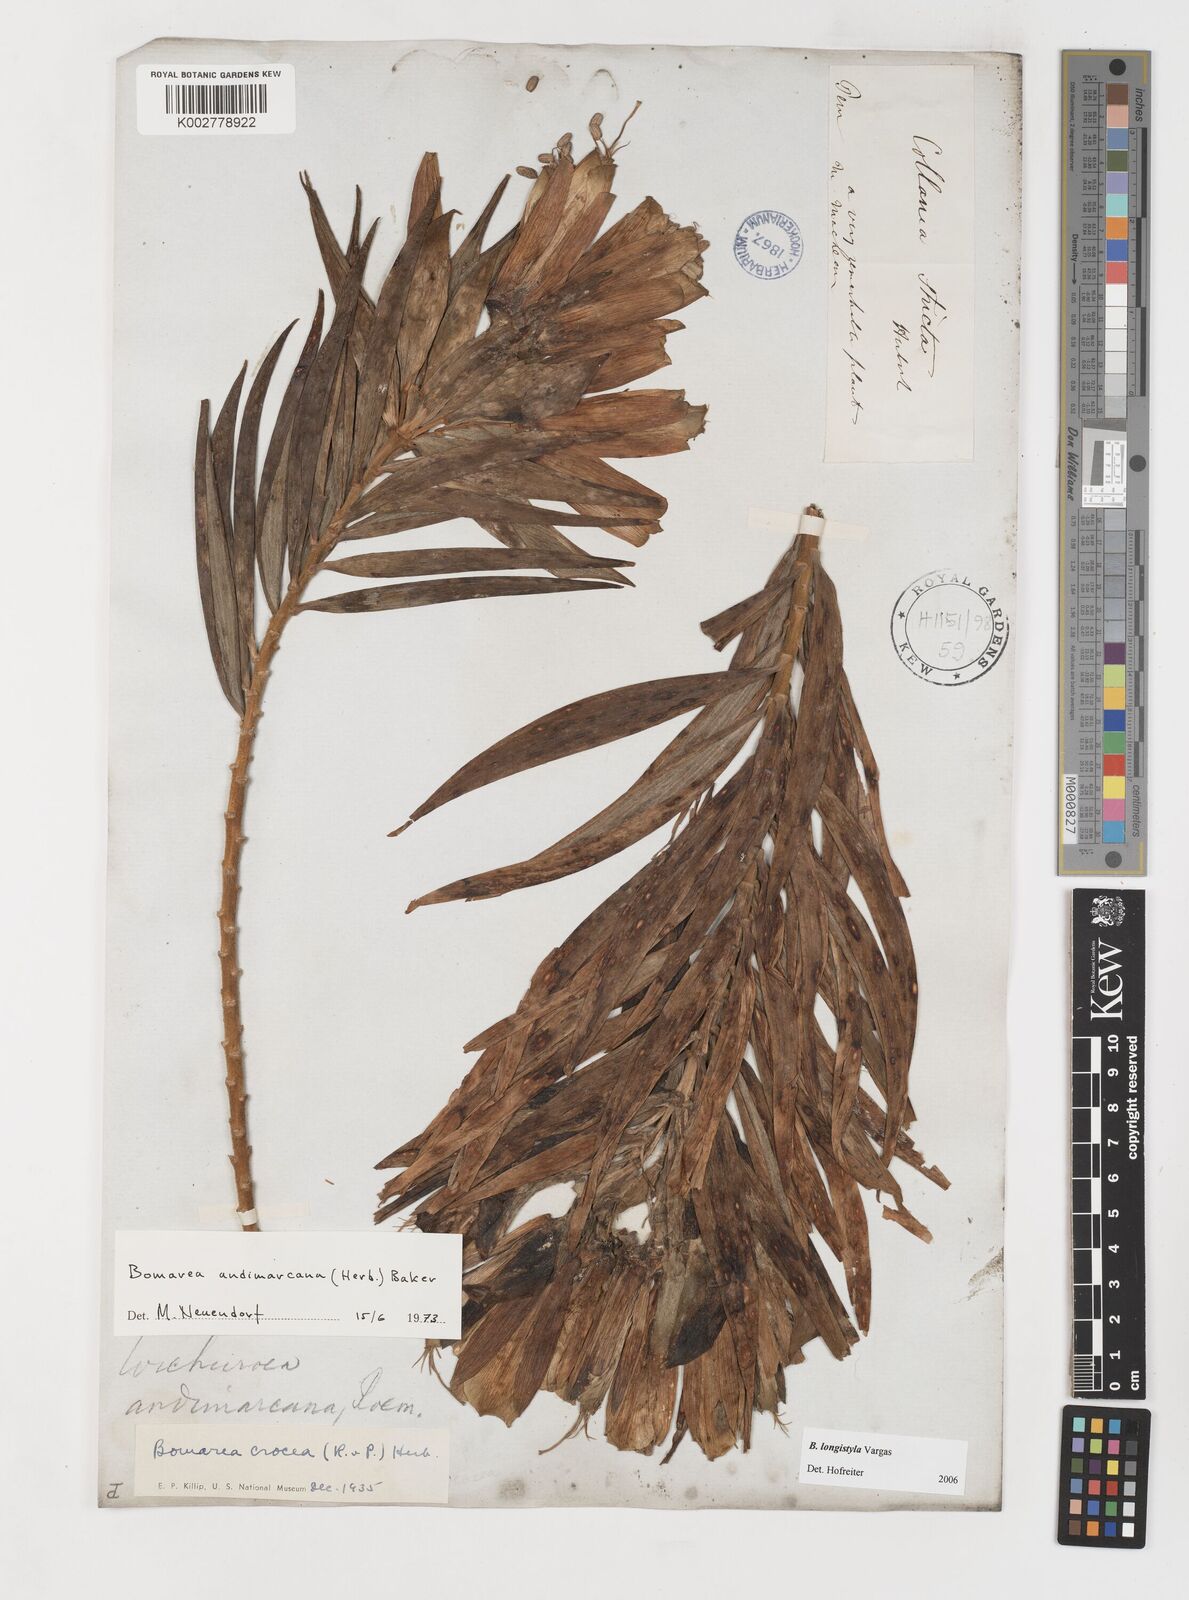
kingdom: Plantae
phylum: Tracheophyta
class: Liliopsida
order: Liliales
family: Alstroemeriaceae
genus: Bomarea
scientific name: Bomarea longistyla
